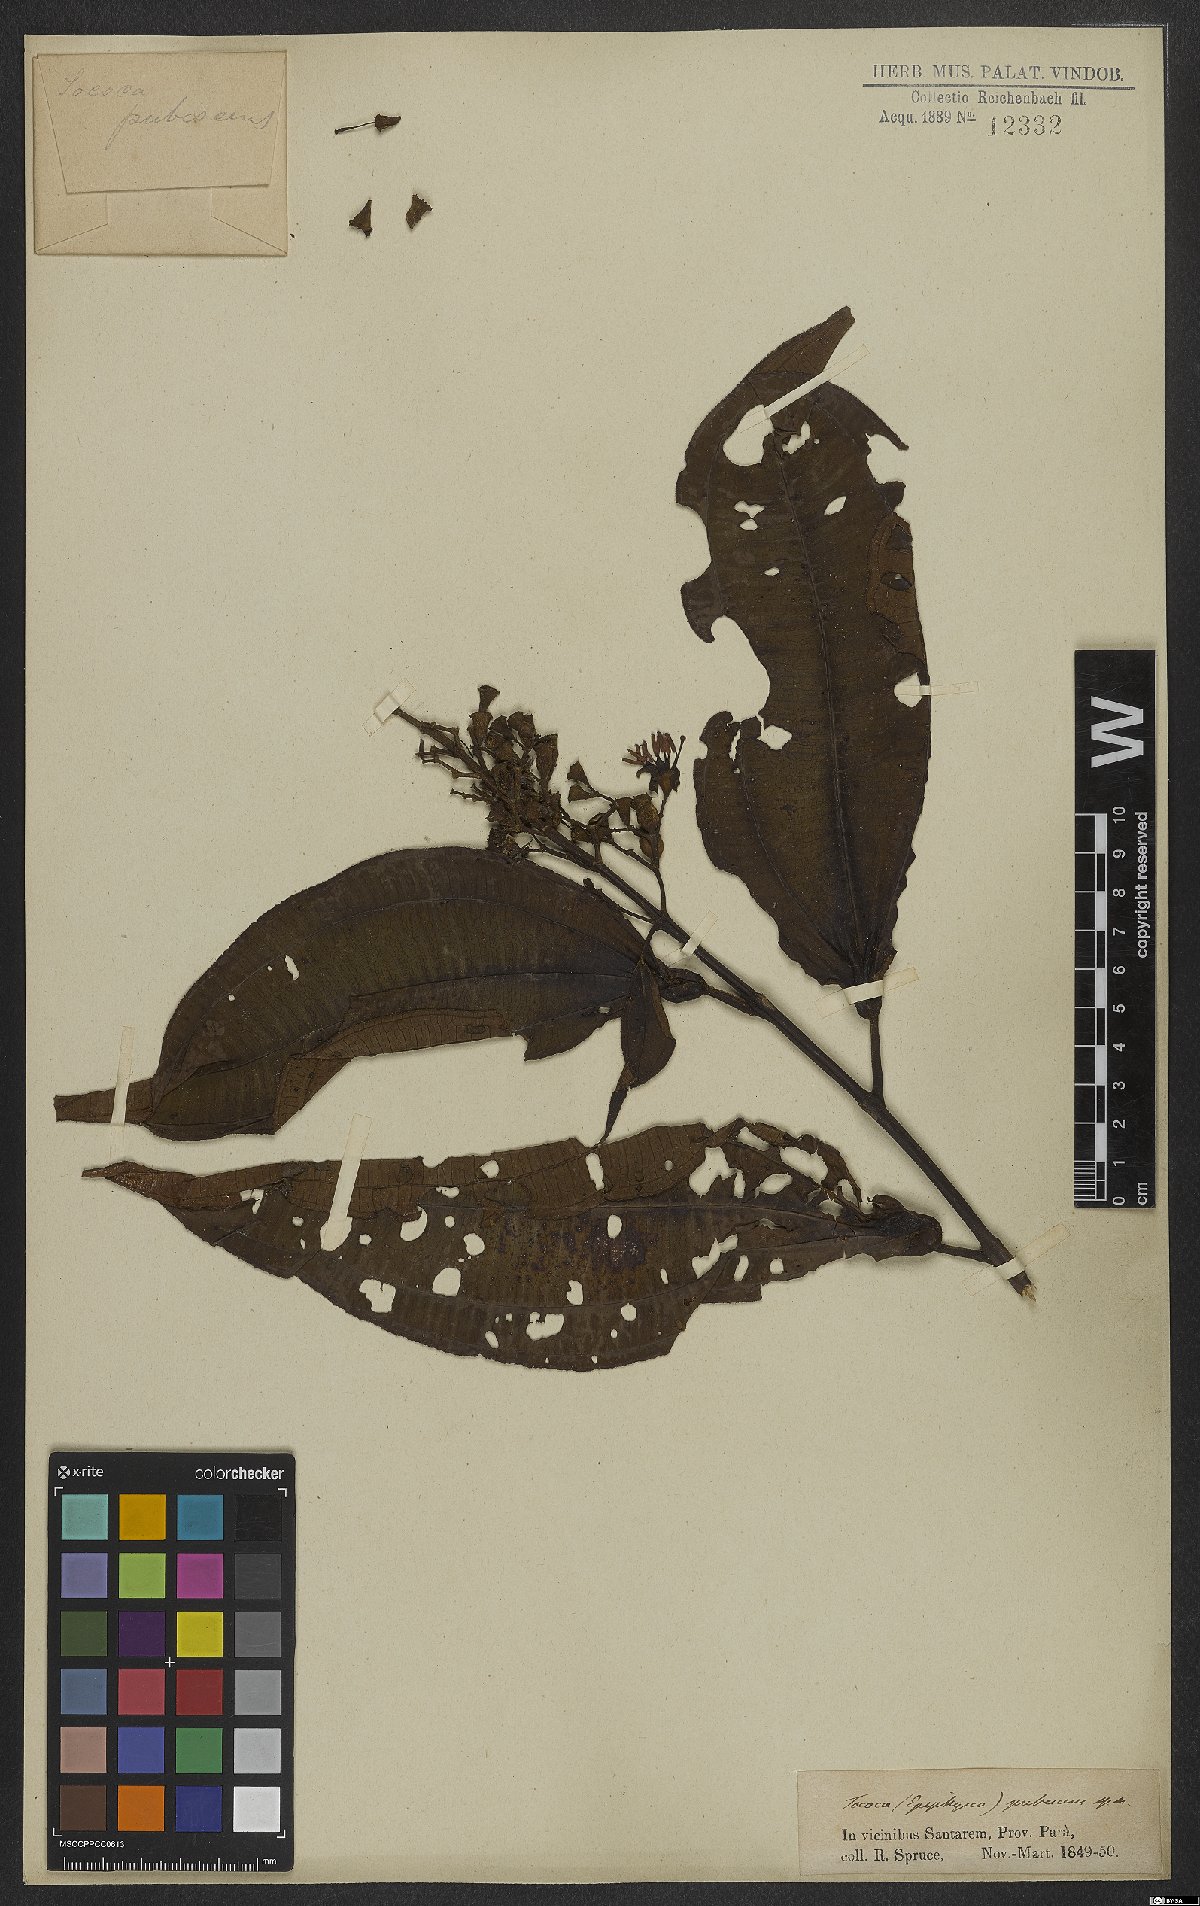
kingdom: Plantae
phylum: Tracheophyta
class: Magnoliopsida
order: Myrtales
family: Melastomataceae
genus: Miconia
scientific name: Miconia tococoronata
